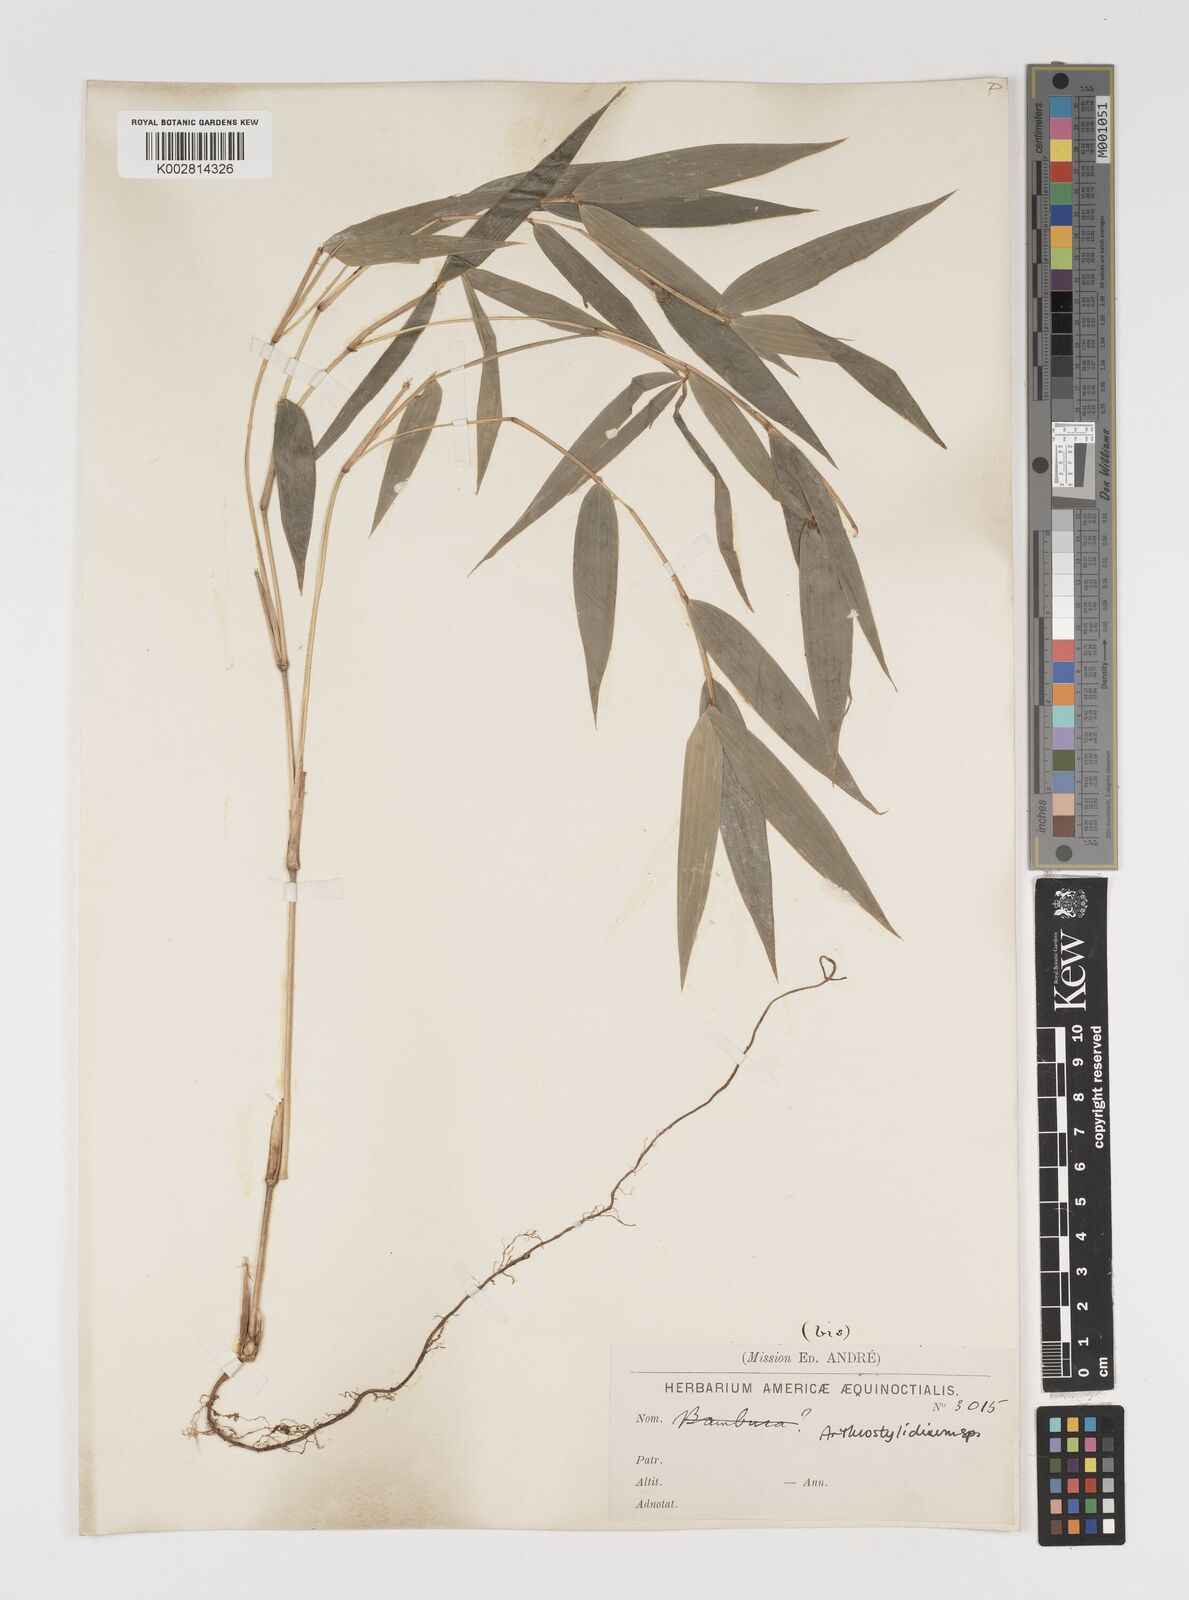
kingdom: Plantae
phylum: Tracheophyta
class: Liliopsida
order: Poales
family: Poaceae
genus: Arthrostylidium
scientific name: Arthrostylidium
